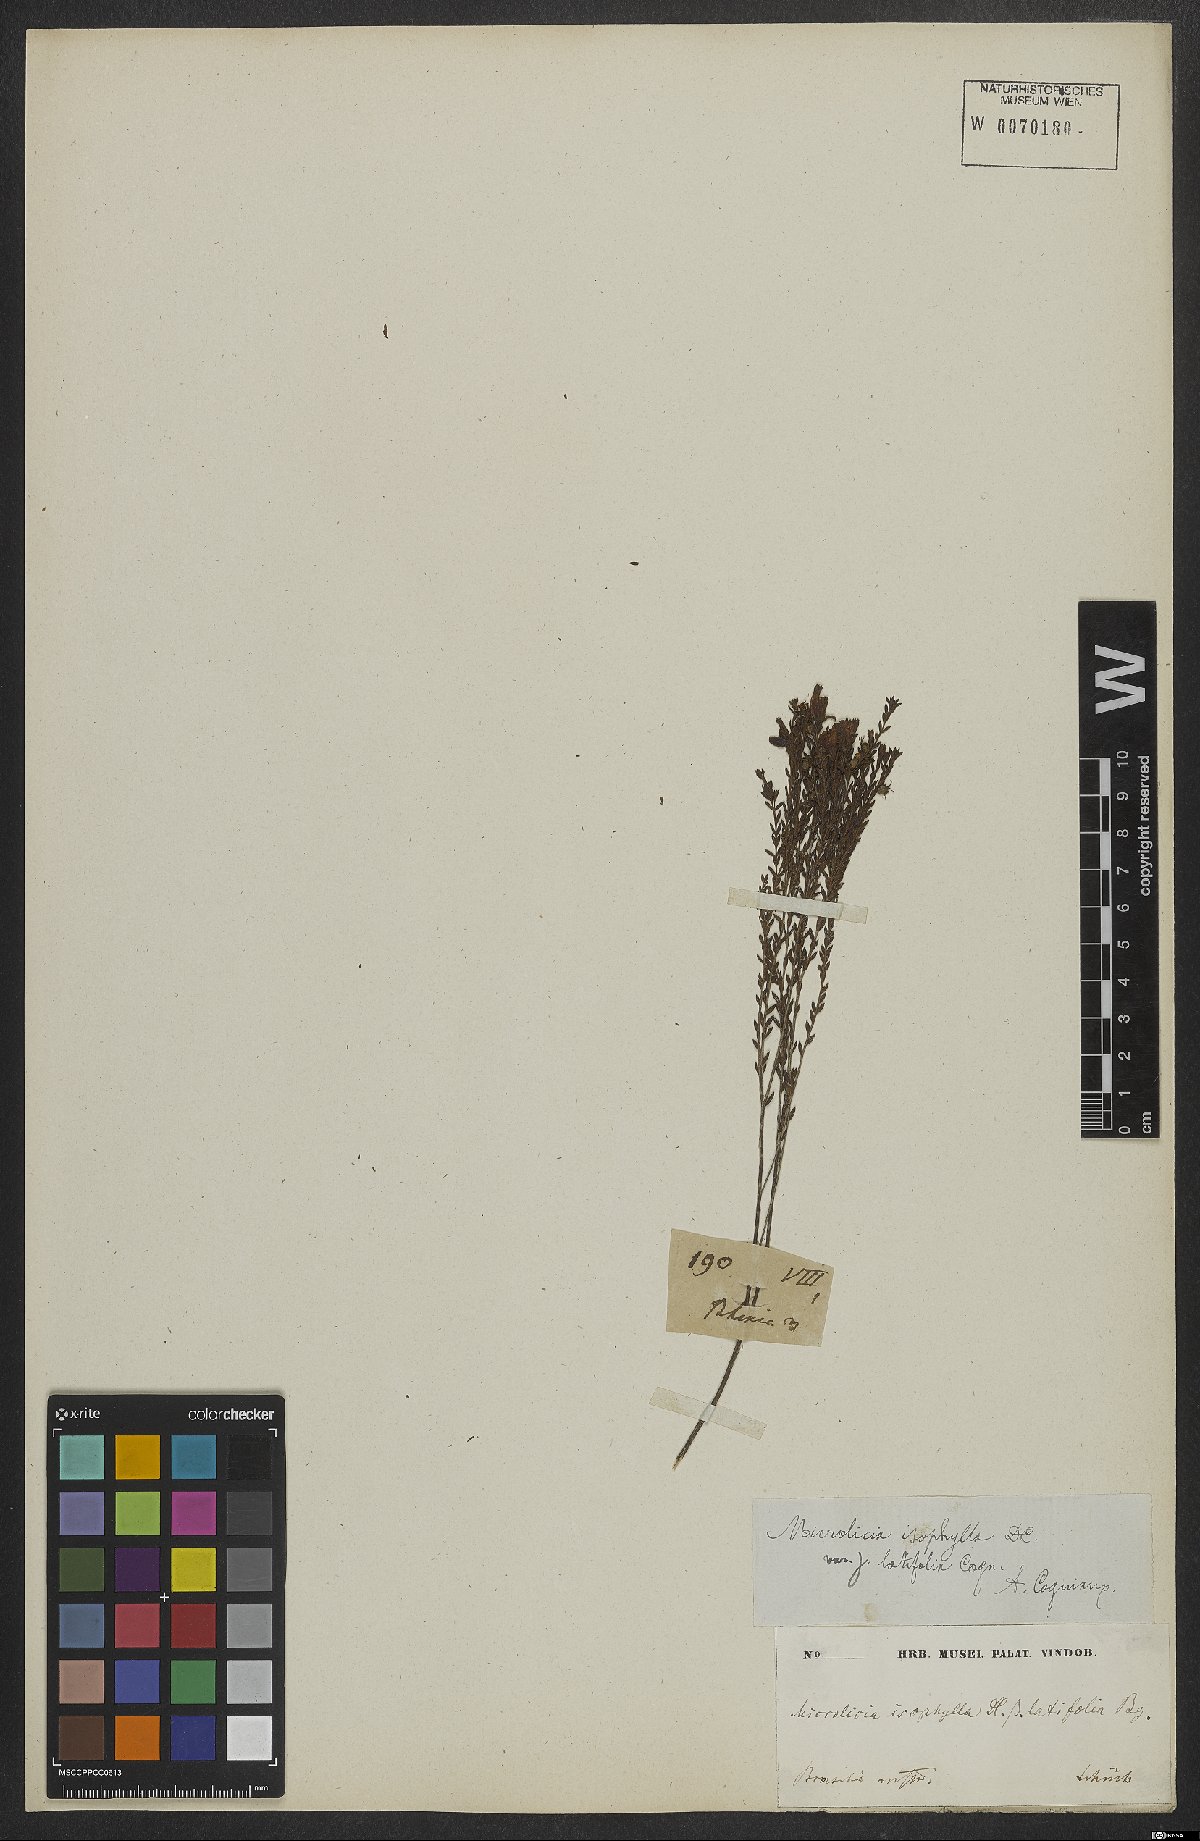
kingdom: Plantae
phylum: Tracheophyta
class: Magnoliopsida
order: Myrtales
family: Melastomataceae
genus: Microlicia
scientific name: Microlicia isophylla
